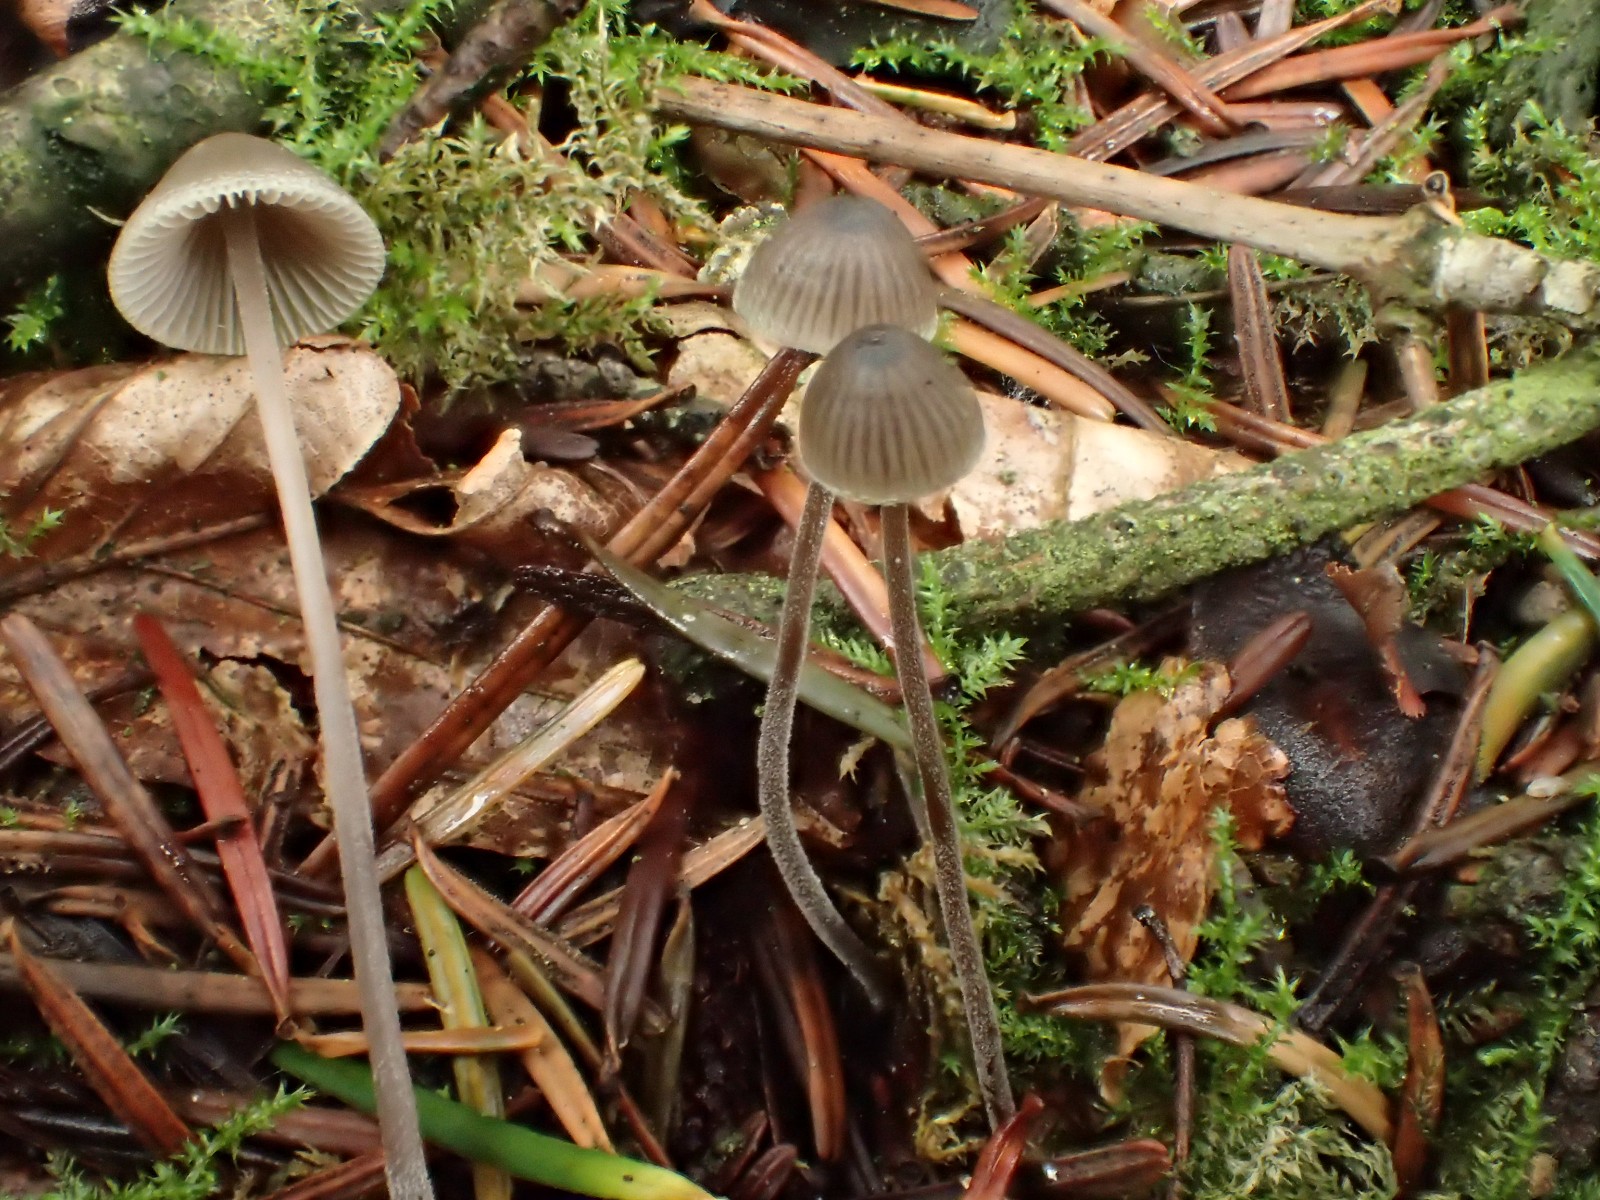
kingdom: Fungi
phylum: Basidiomycota
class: Agaricomycetes
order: Agaricales
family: Mycenaceae
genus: Mycena
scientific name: Mycena amicta
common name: iris-huesvamp
